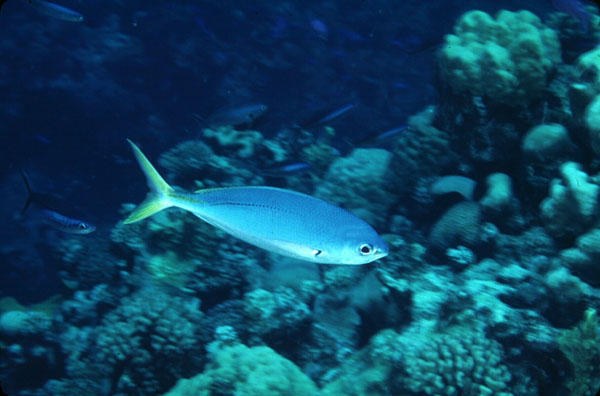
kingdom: Animalia
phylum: Chordata
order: Perciformes
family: Caesionidae
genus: Caesio
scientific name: Caesio teres
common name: Yellow and blueback fusilier
